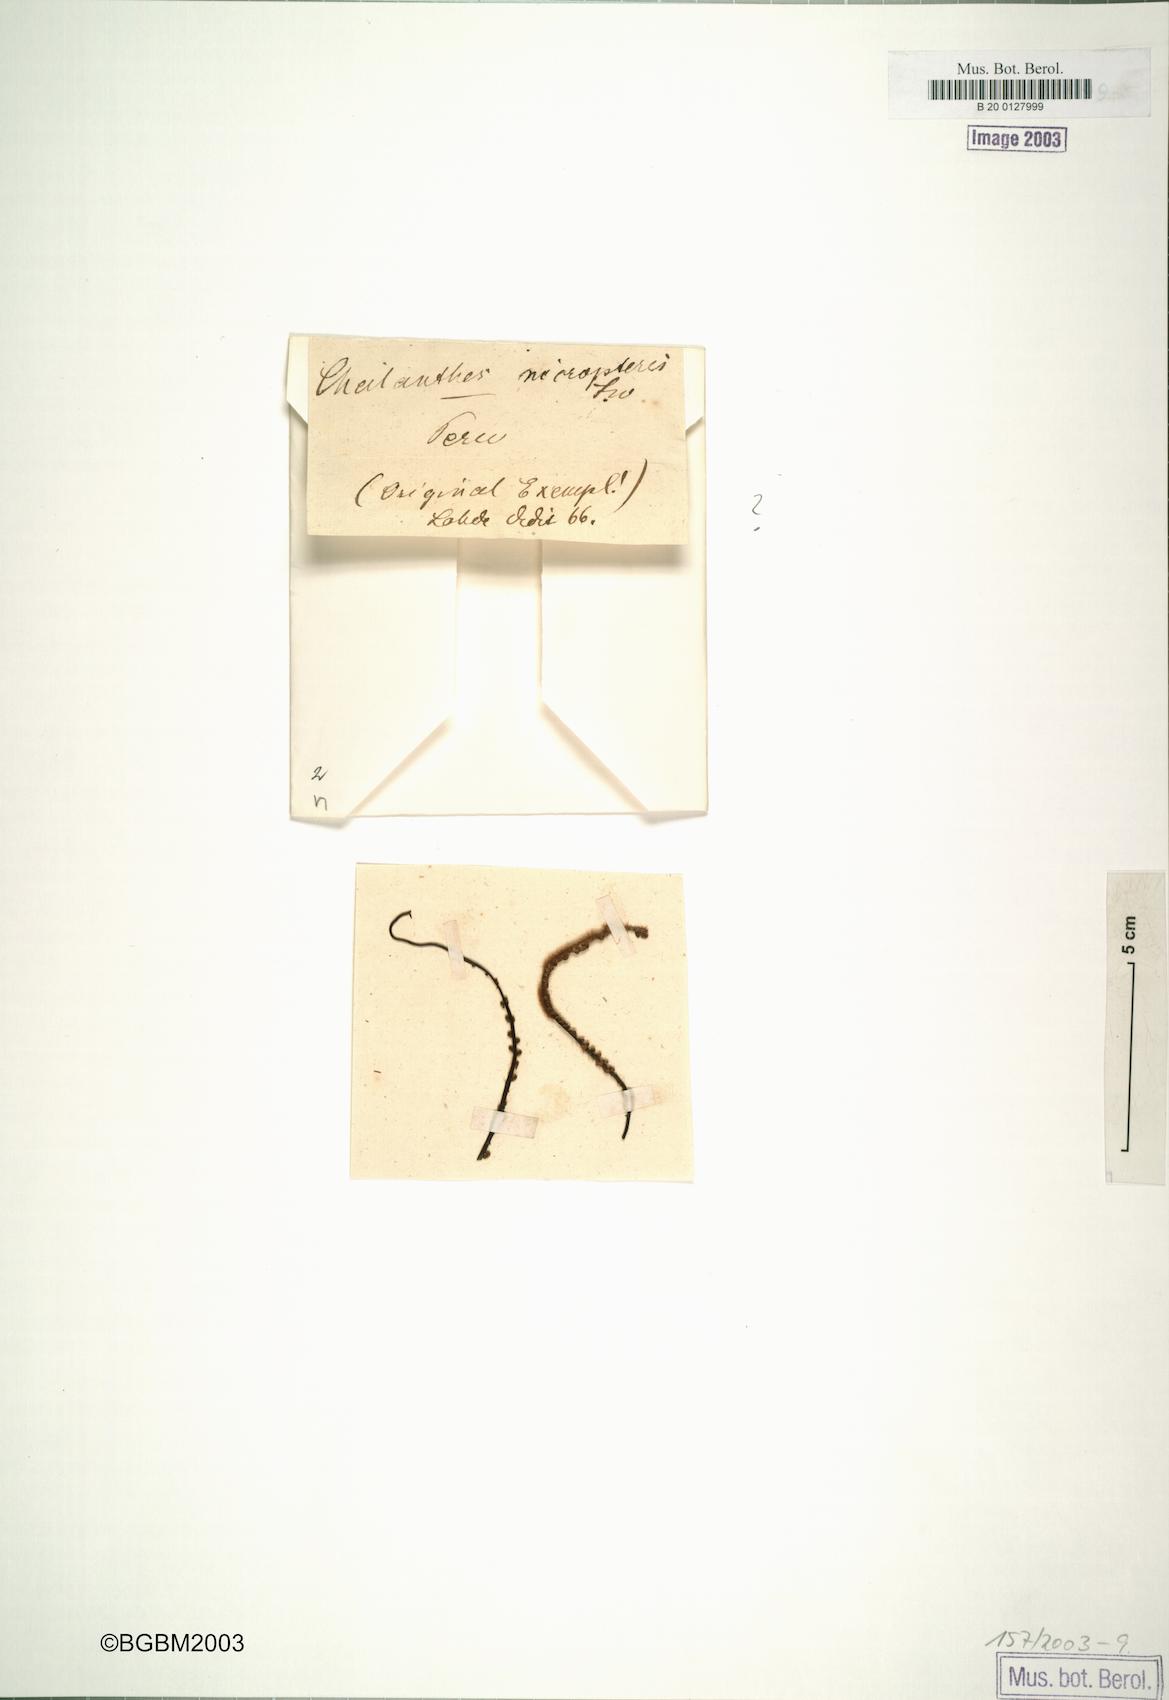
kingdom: Plantae
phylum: Tracheophyta
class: Polypodiopsida
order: Polypodiales
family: Pteridaceae
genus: Cheilanthes
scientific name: Cheilanthes micropteris
